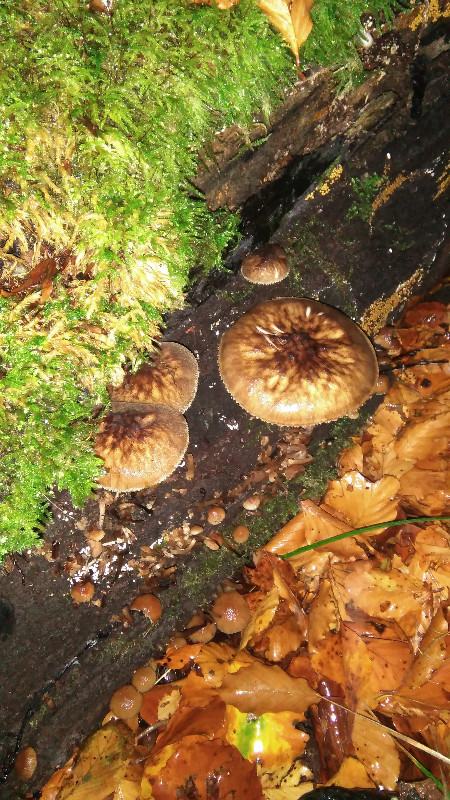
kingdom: Fungi
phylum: Basidiomycota
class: Agaricomycetes
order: Agaricales
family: Pluteaceae
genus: Pluteus
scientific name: Pluteus umbrosus
